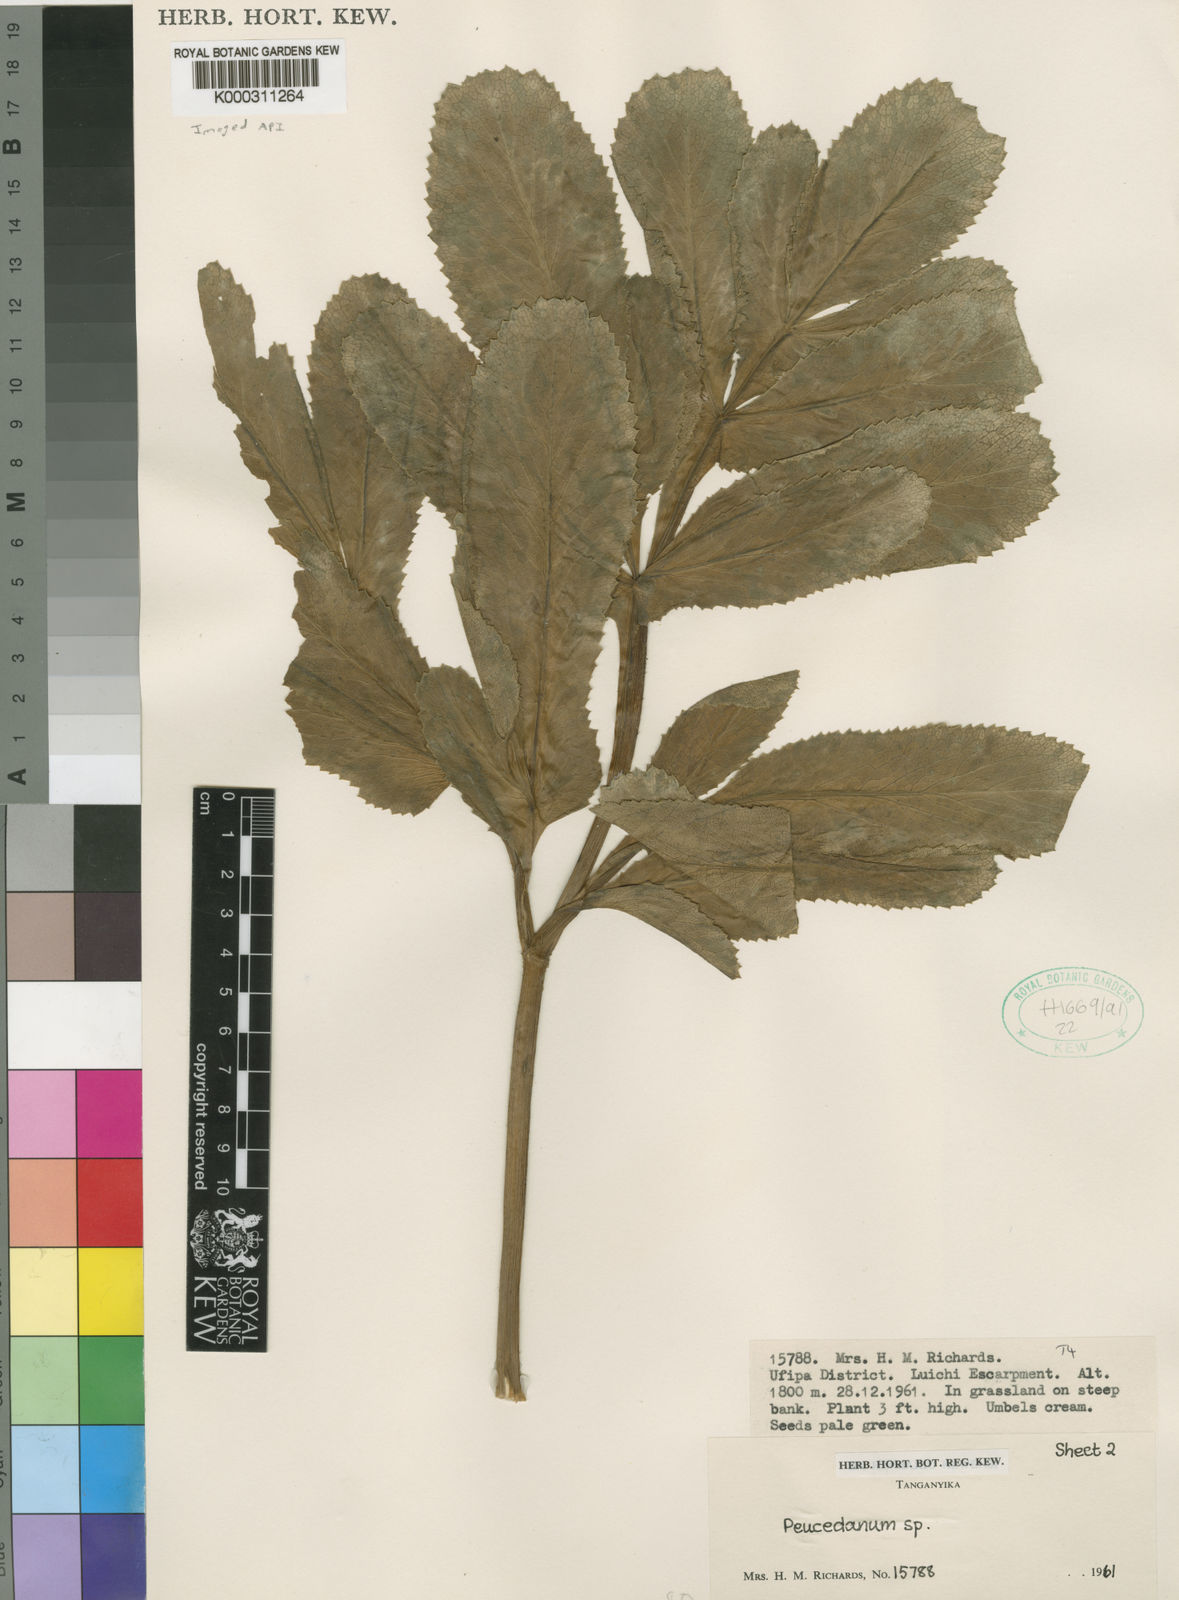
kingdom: Plantae
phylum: Tracheophyta
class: Magnoliopsida
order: Apiales
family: Apiaceae
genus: Lefebvrea
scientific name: Lefebvrea oblongisecta
